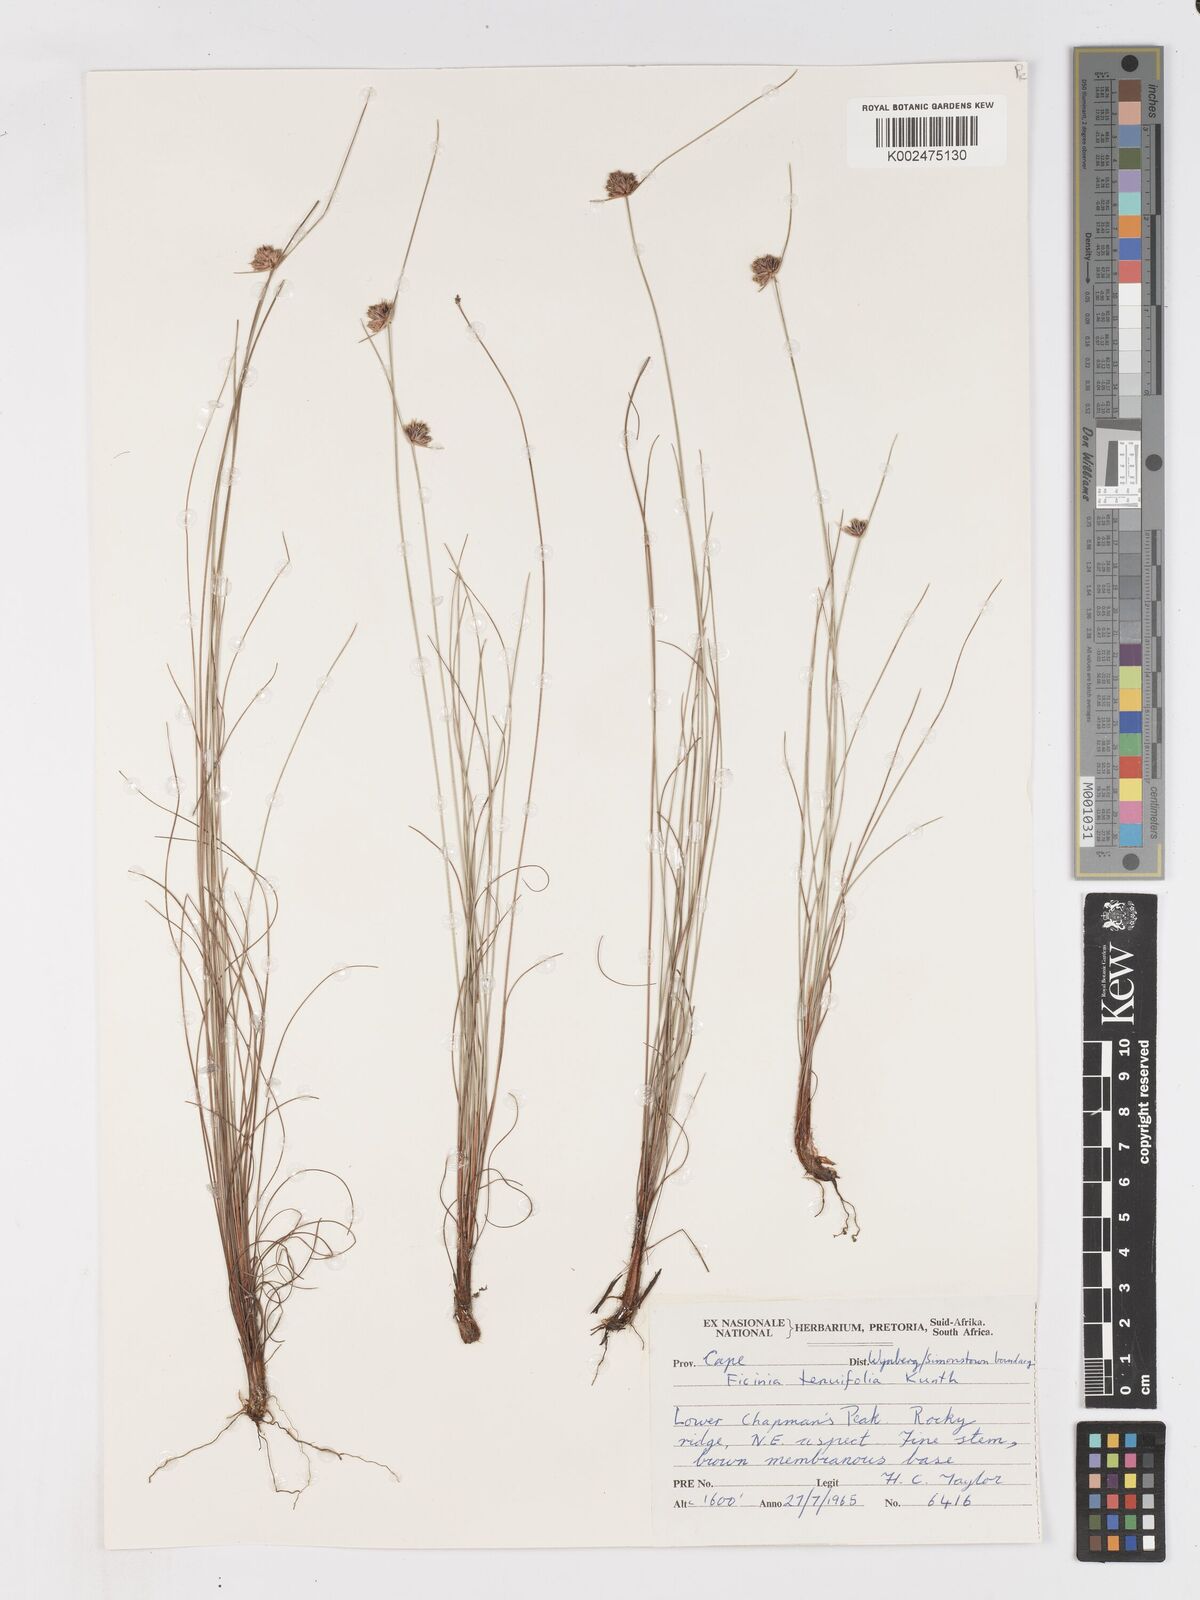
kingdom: Plantae
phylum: Tracheophyta
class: Liliopsida
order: Poales
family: Cyperaceae
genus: Ficinia
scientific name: Ficinia filiformis
